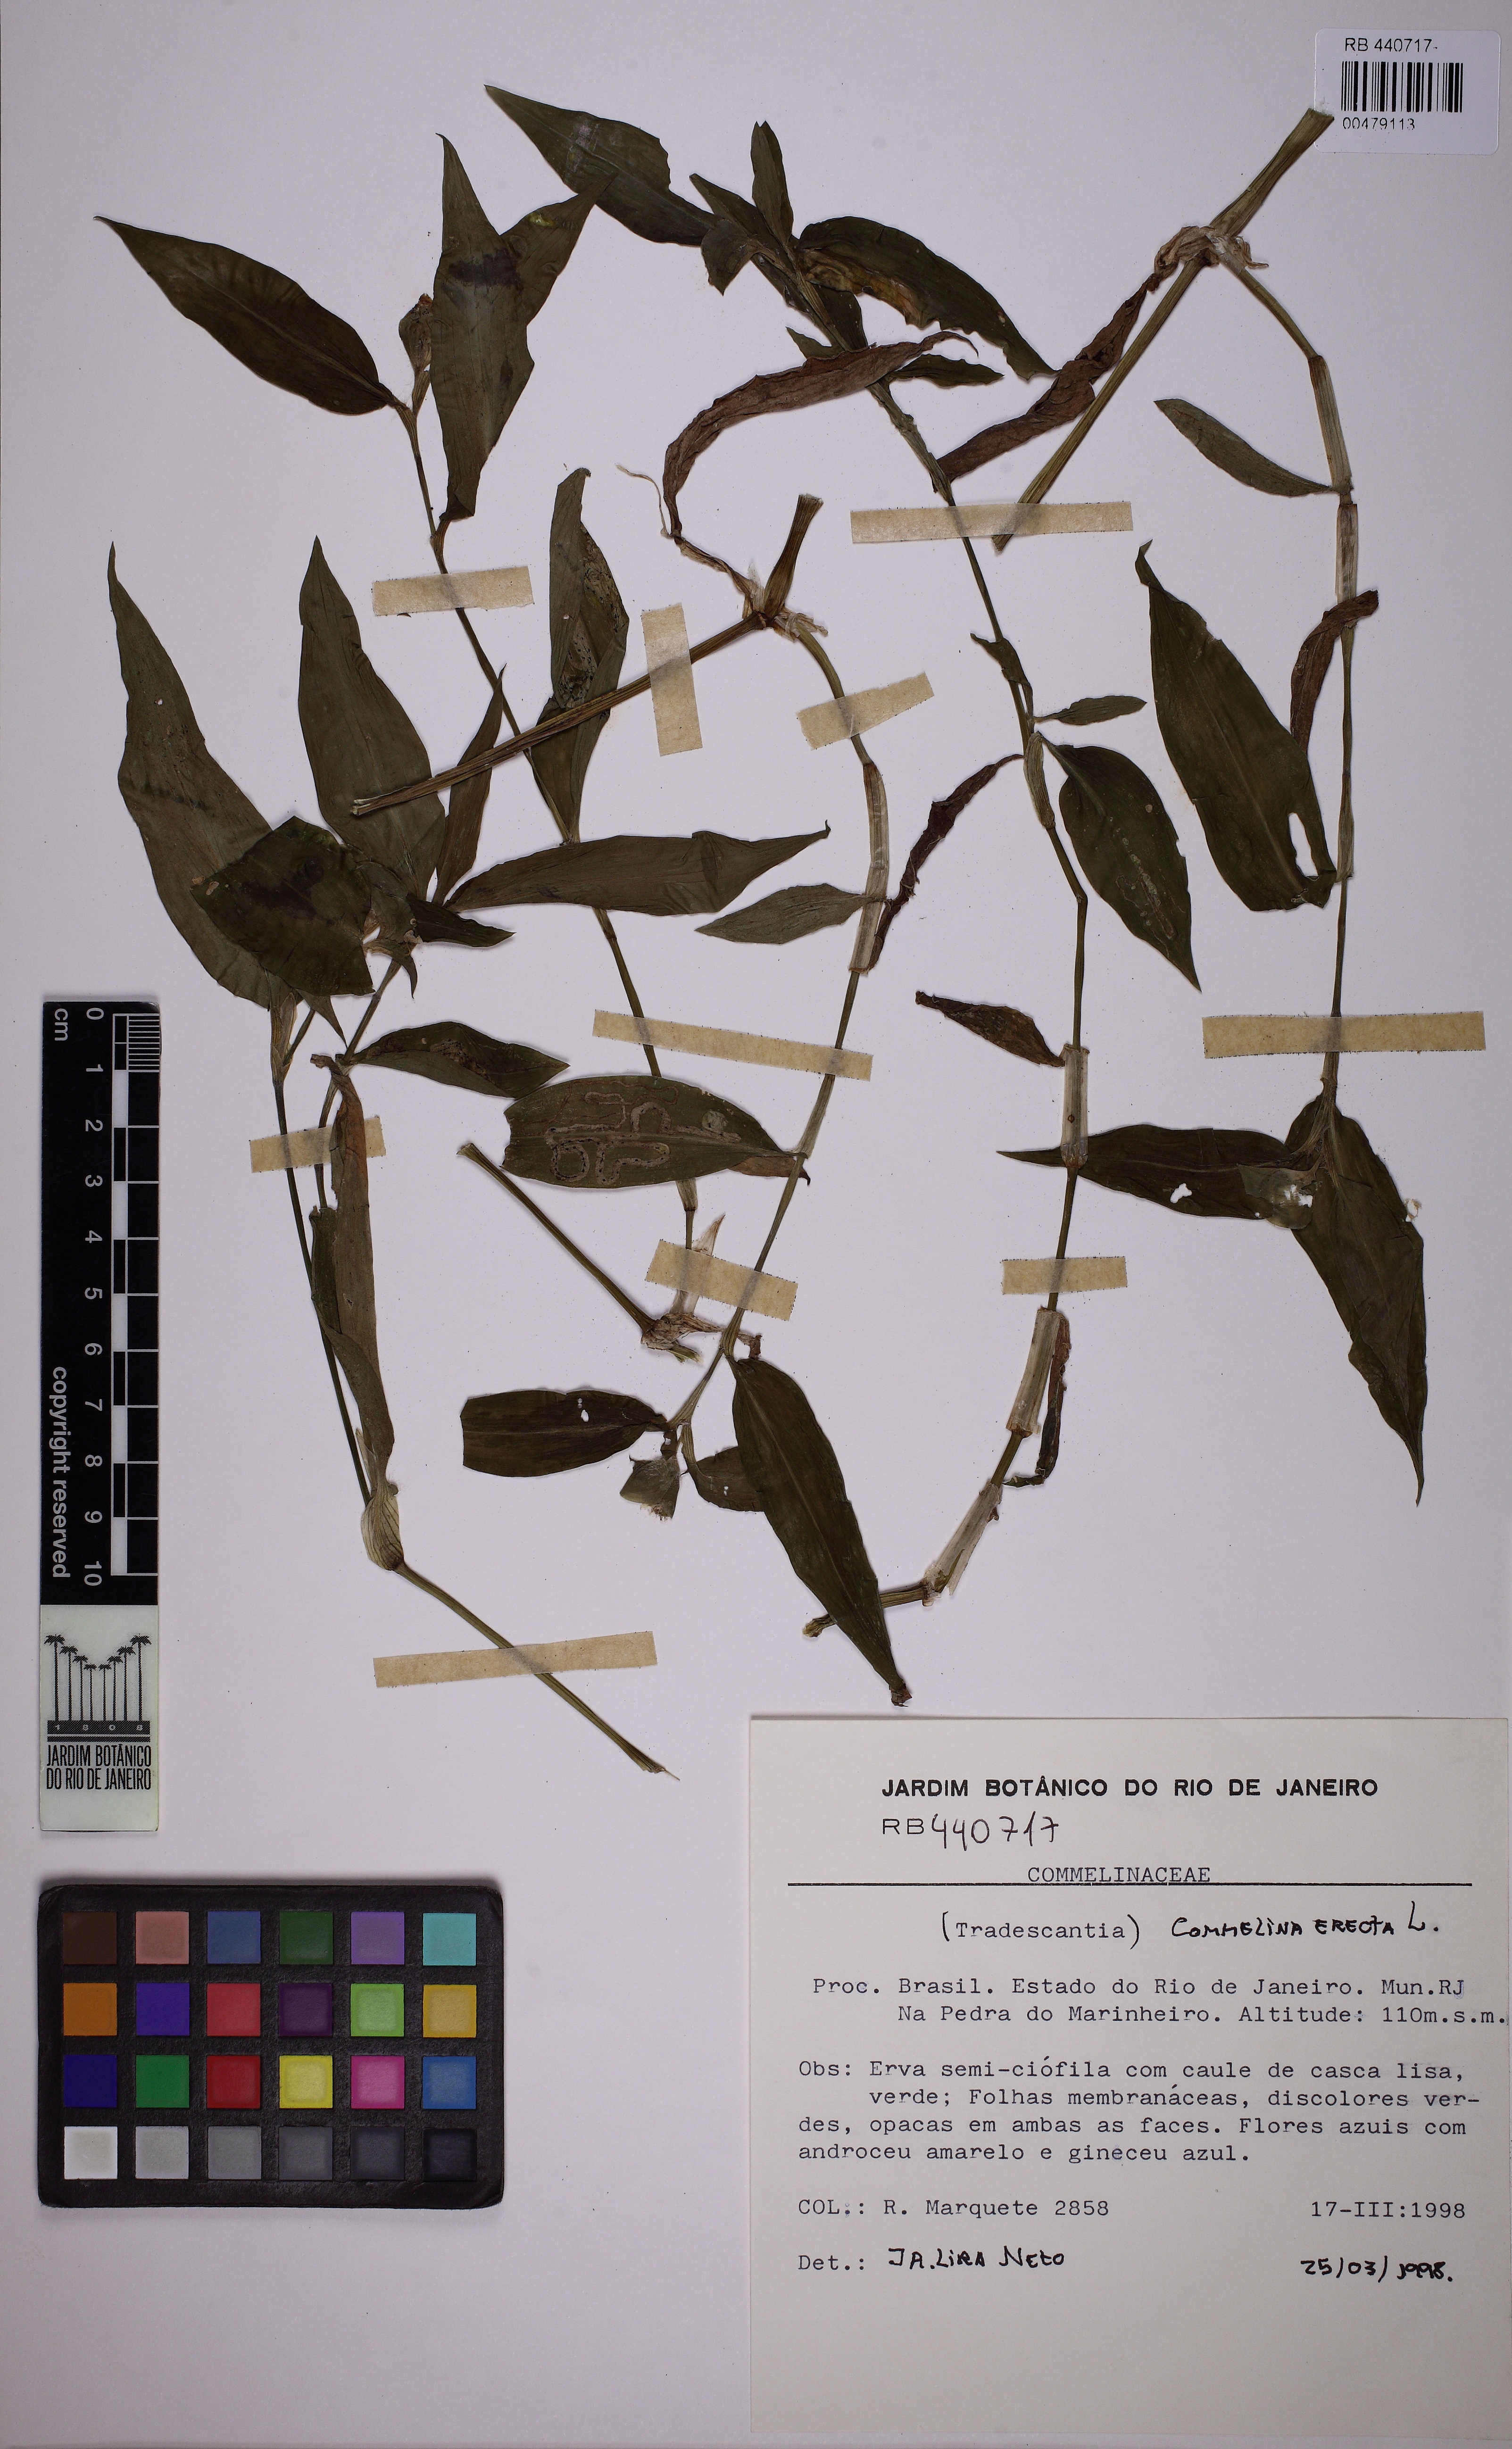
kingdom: Plantae
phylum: Tracheophyta
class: Liliopsida
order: Commelinales
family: Commelinaceae
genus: Commelina
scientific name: Commelina erecta
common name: Blousel blommetjie
